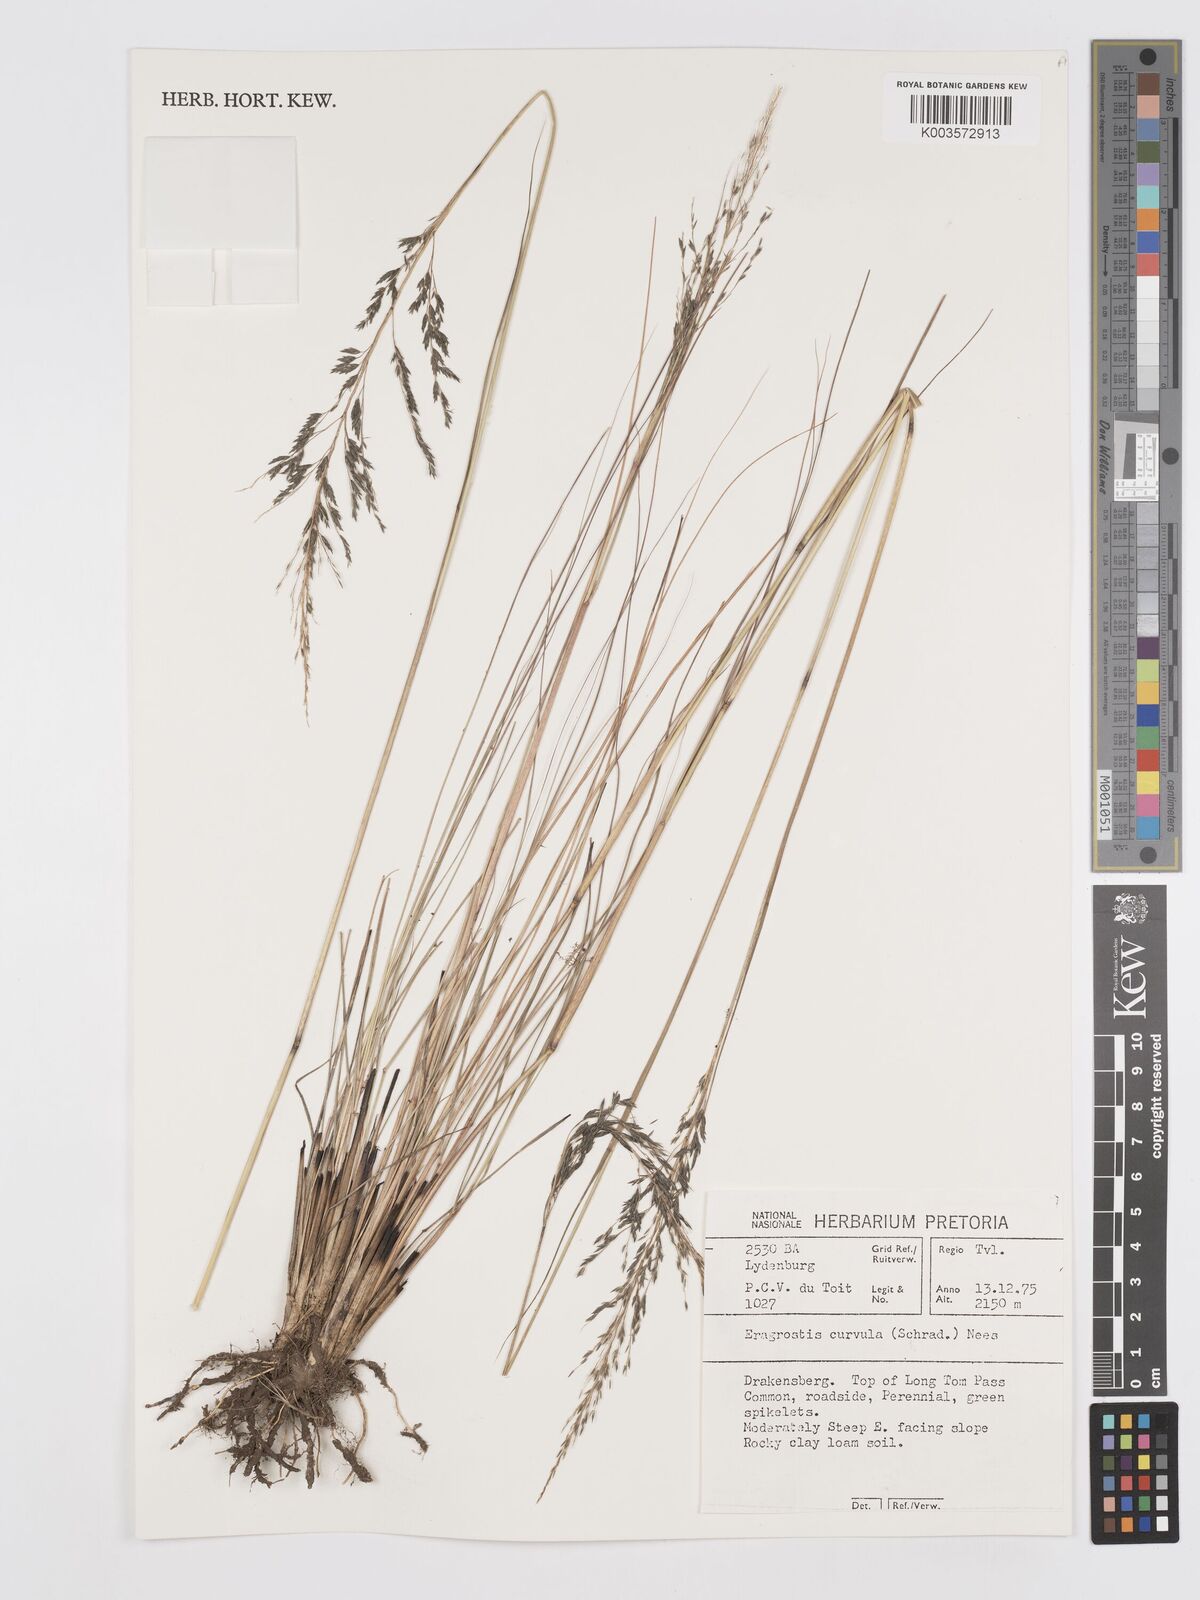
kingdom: Plantae
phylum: Tracheophyta
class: Liliopsida
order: Poales
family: Poaceae
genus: Eragrostis
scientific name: Eragrostis curvula
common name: African love-grass
